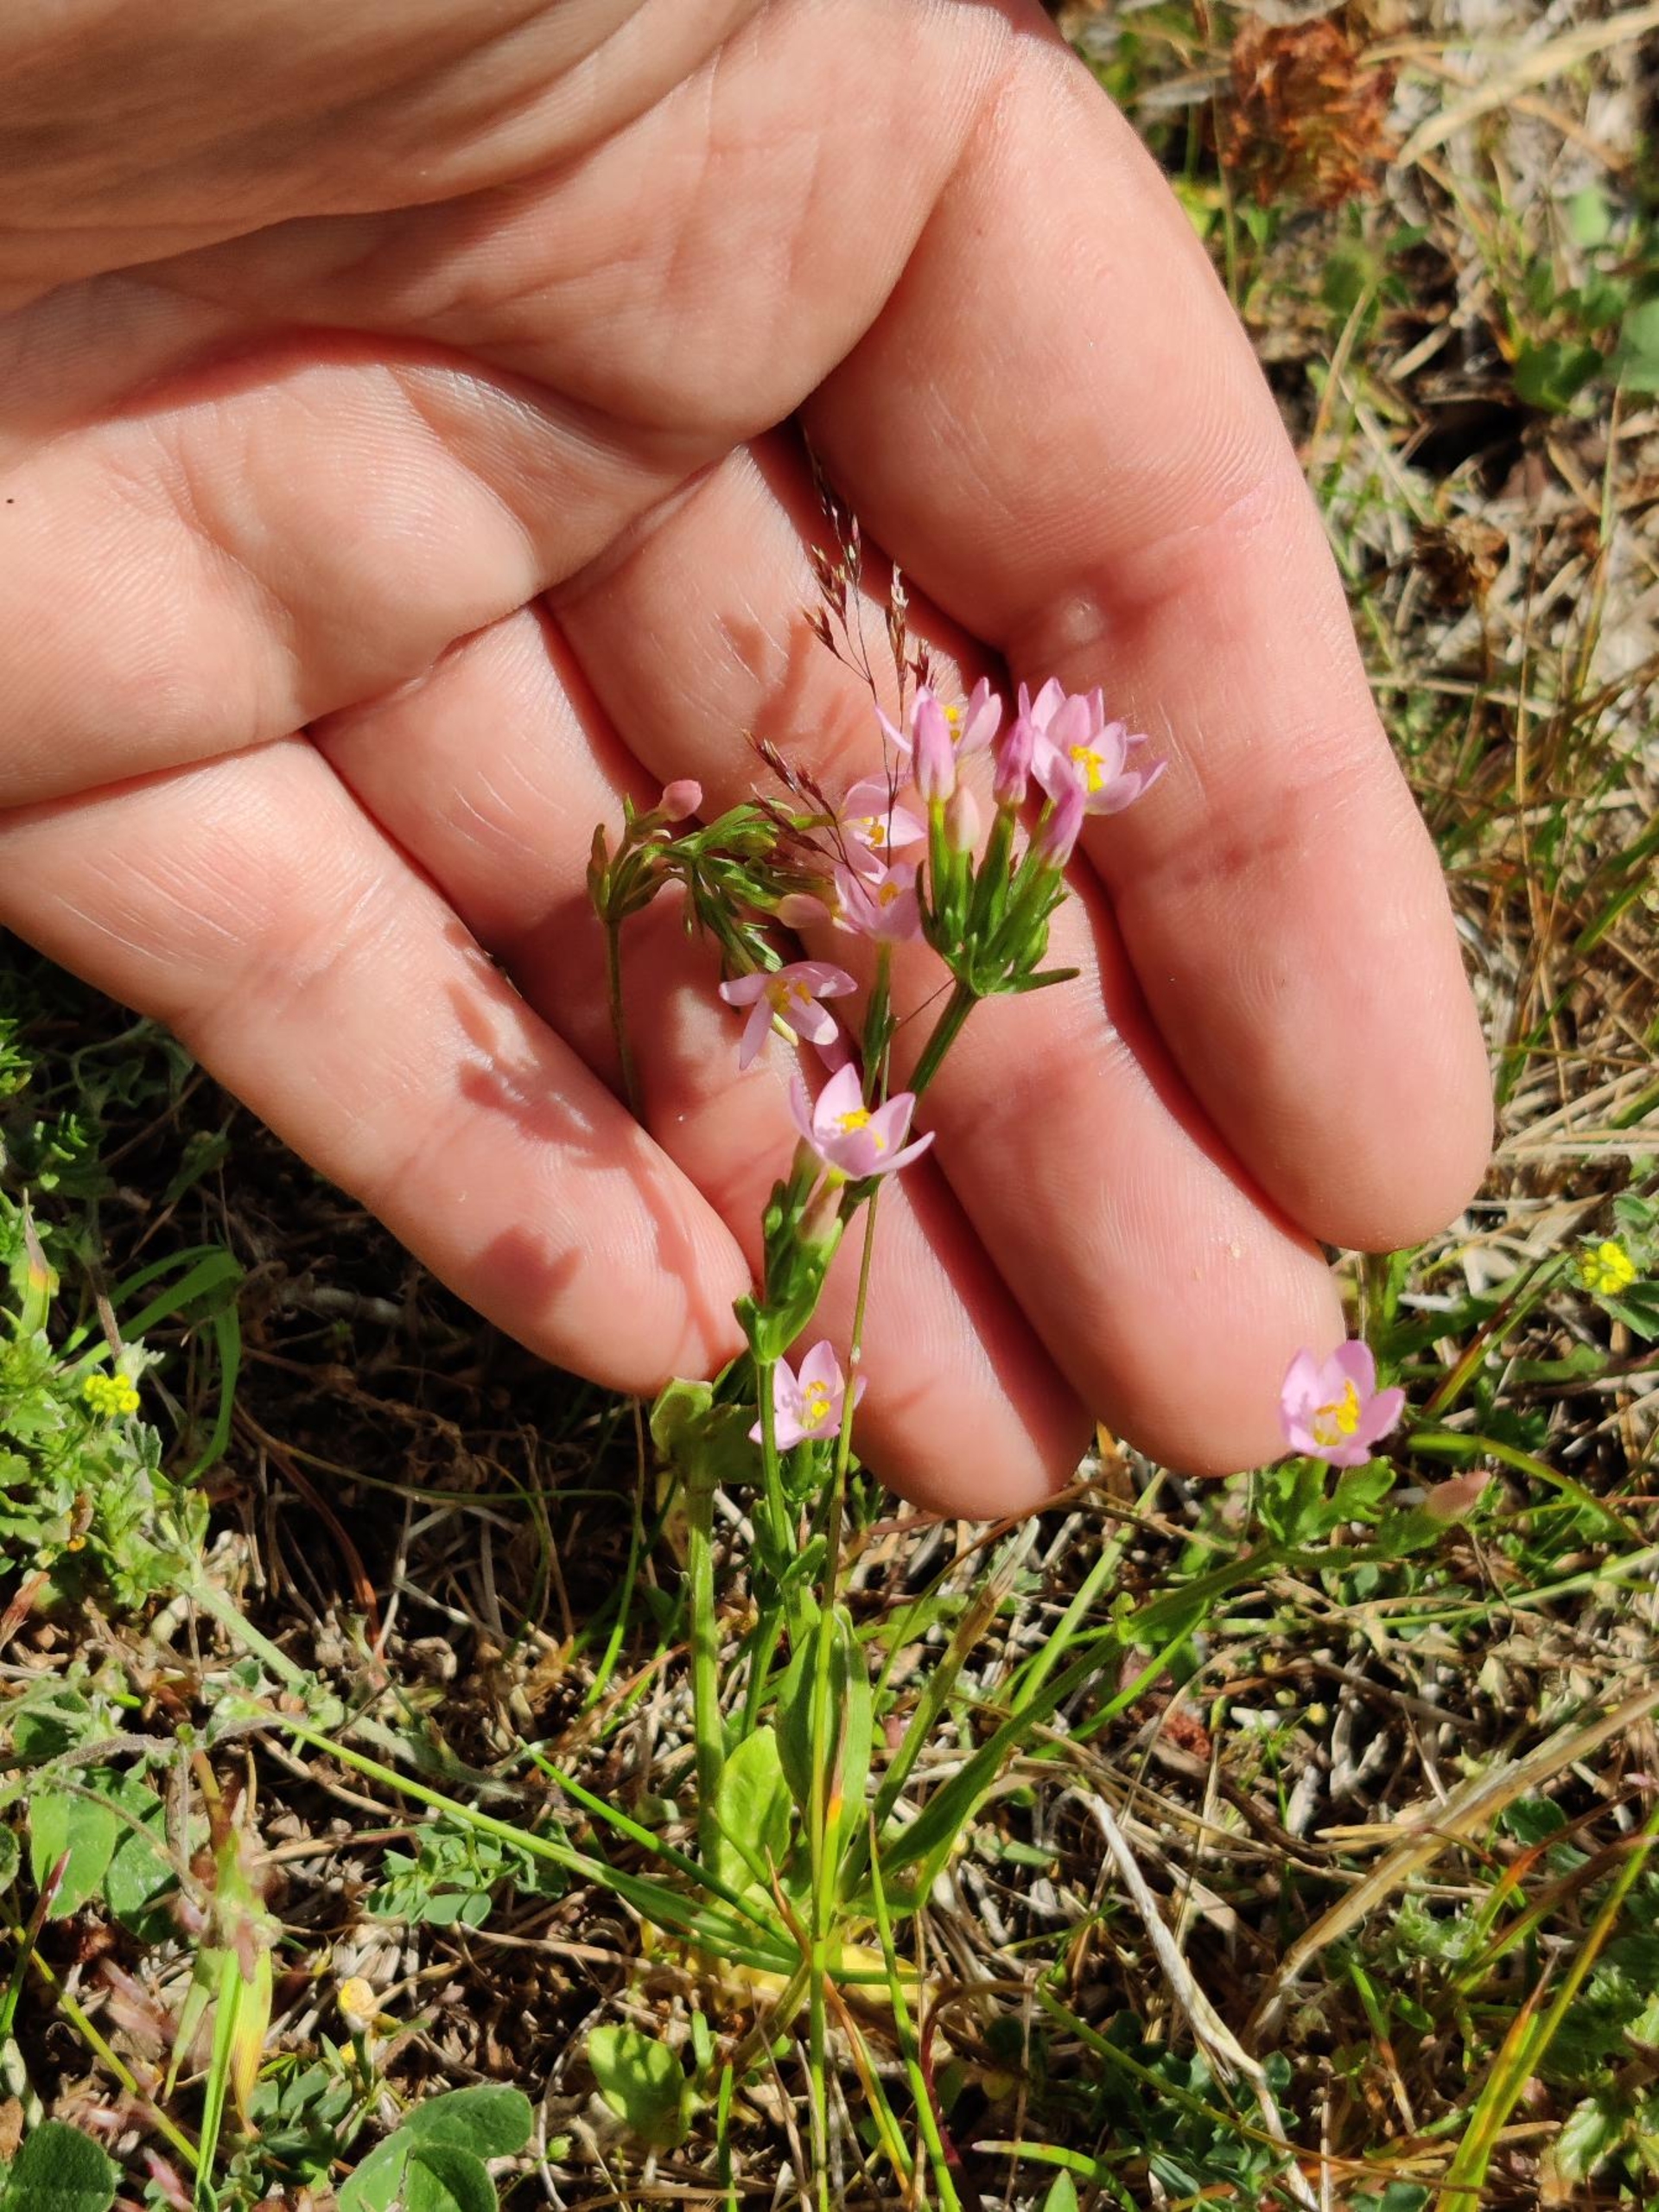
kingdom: Plantae
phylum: Tracheophyta
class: Magnoliopsida
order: Gentianales
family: Gentianaceae
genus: Centaurium
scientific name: Centaurium erythraea
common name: Mark-tusindgylden
